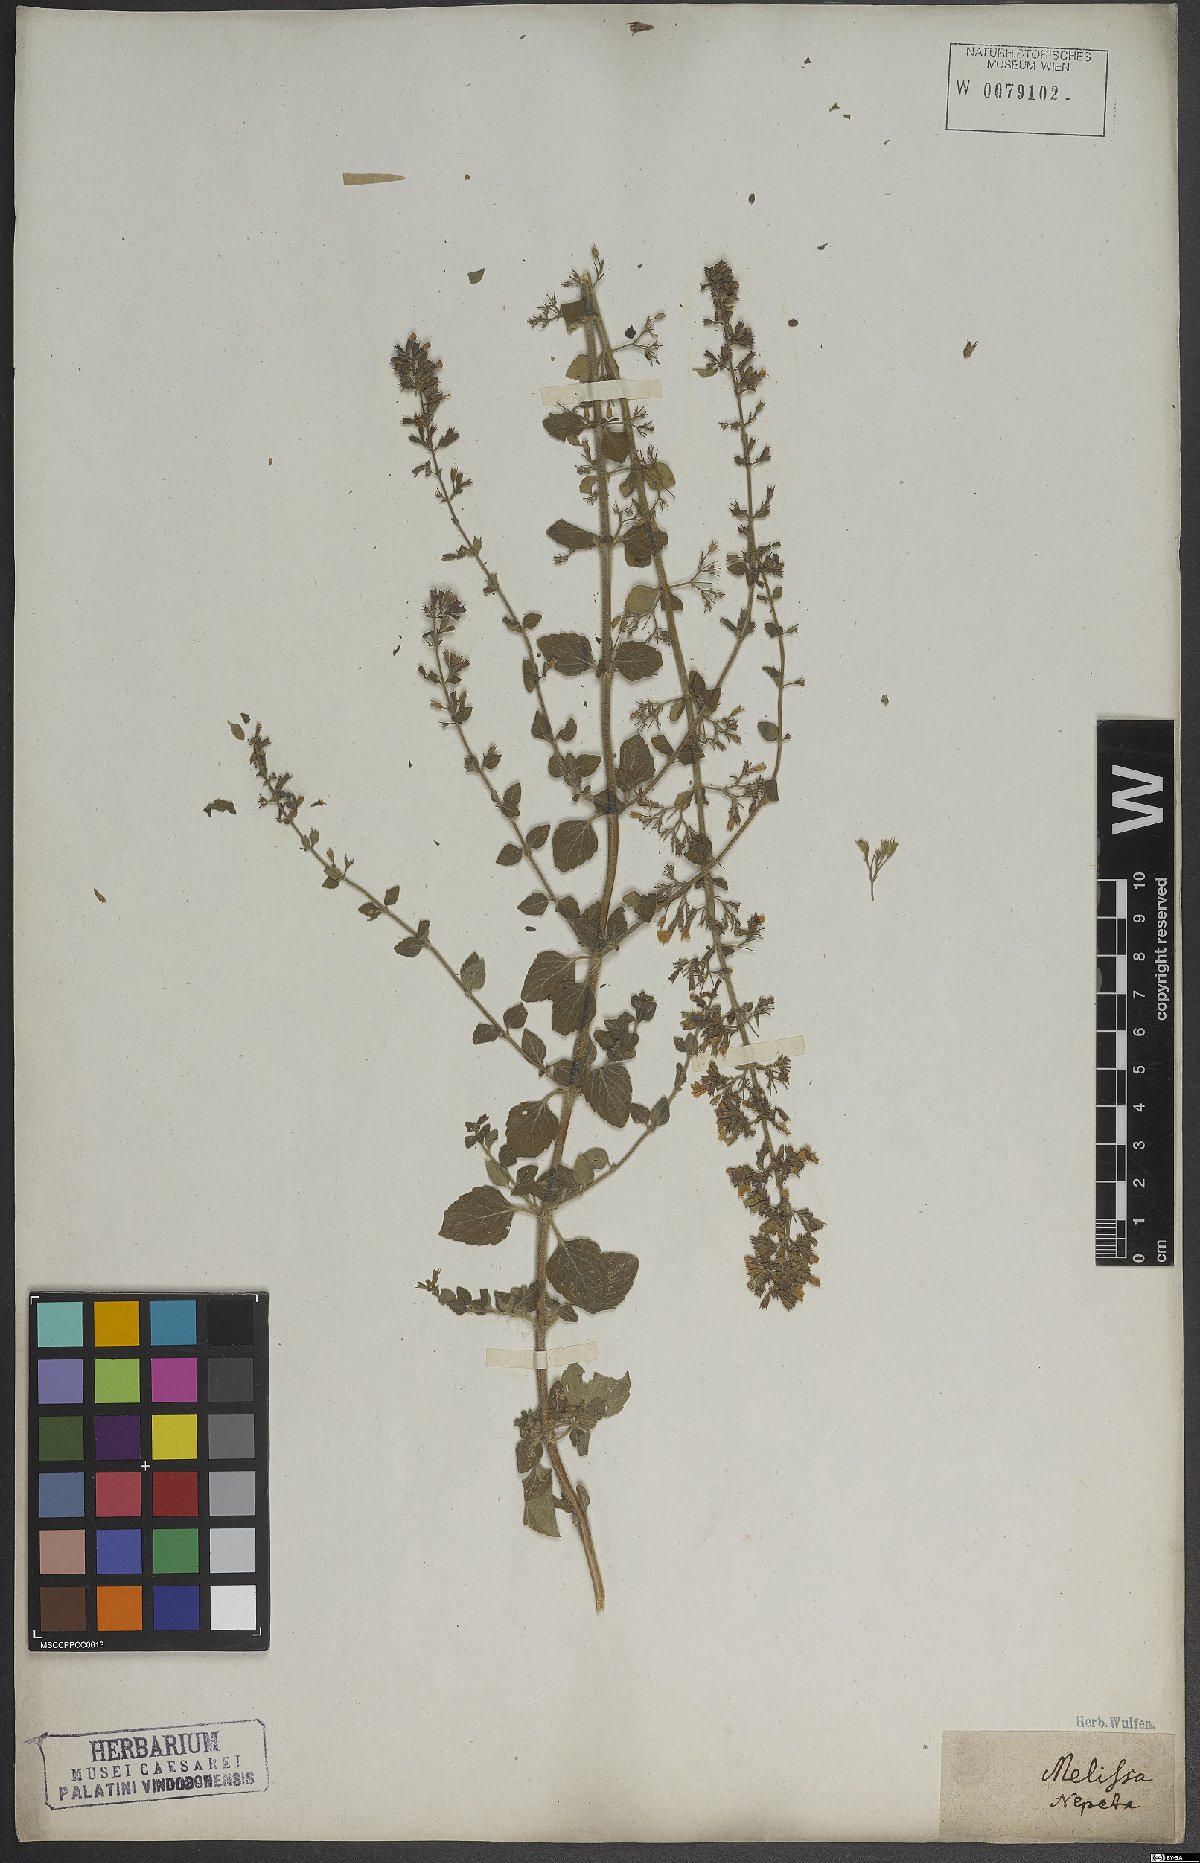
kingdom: Plantae
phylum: Tracheophyta
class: Magnoliopsida
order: Lamiales
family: Lamiaceae
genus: Clinopodium
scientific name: Clinopodium nepeta
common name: Lesser calamint
